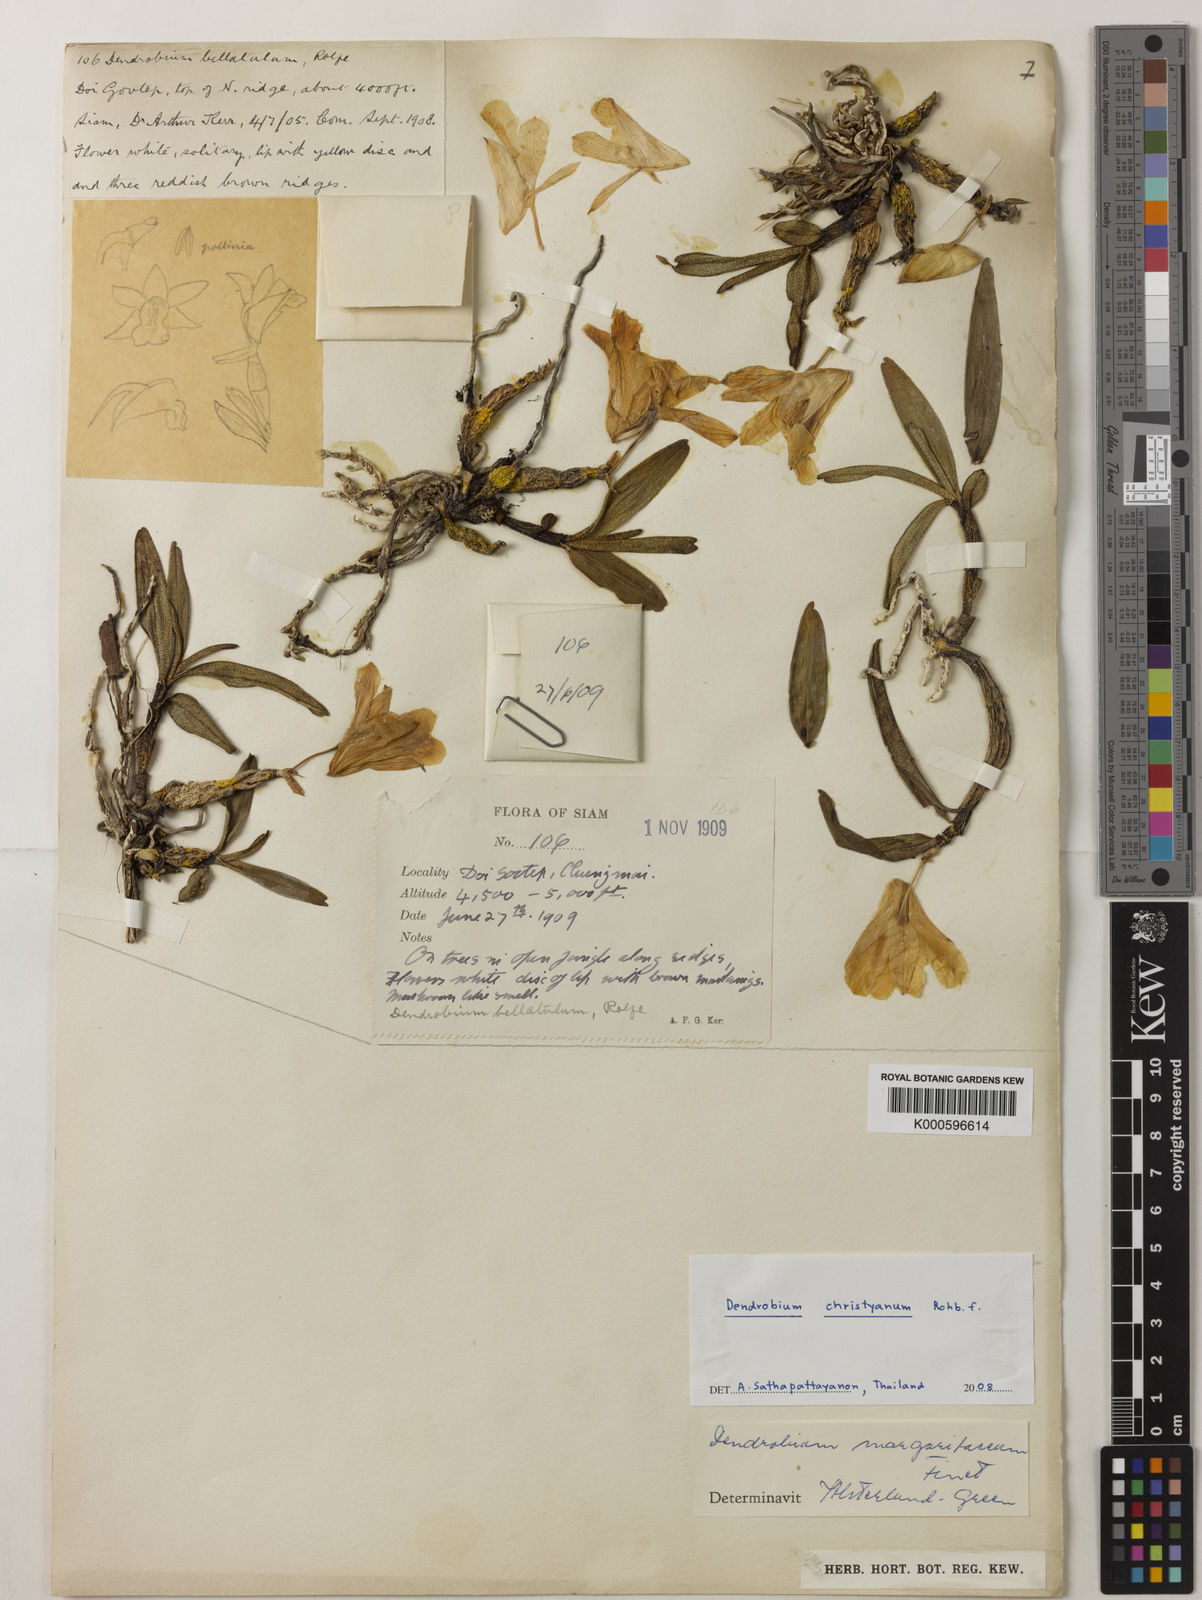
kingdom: Plantae
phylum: Tracheophyta
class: Liliopsida
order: Asparagales
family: Orchidaceae
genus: Dendrobium
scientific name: Dendrobium christyanum
